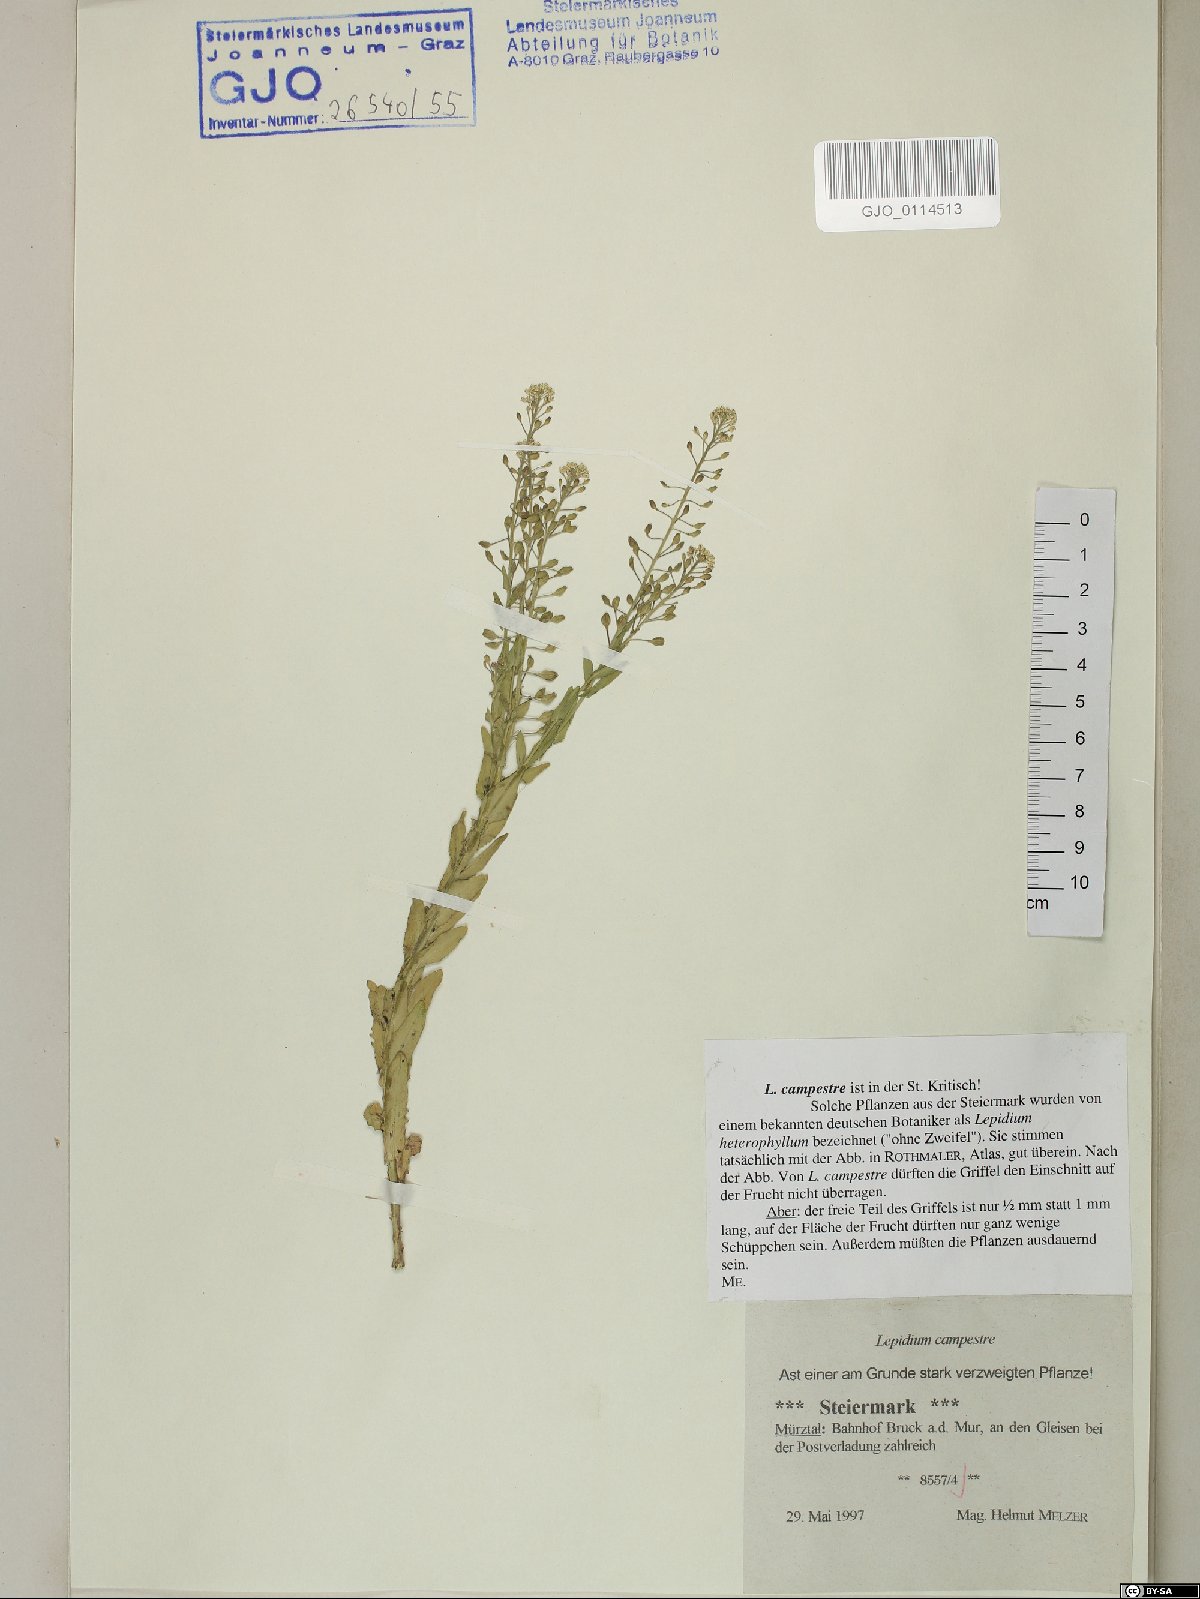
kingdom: Plantae
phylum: Tracheophyta
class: Magnoliopsida
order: Brassicales
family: Brassicaceae
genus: Lepidium
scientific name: Lepidium campestre
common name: Field pepperwort
